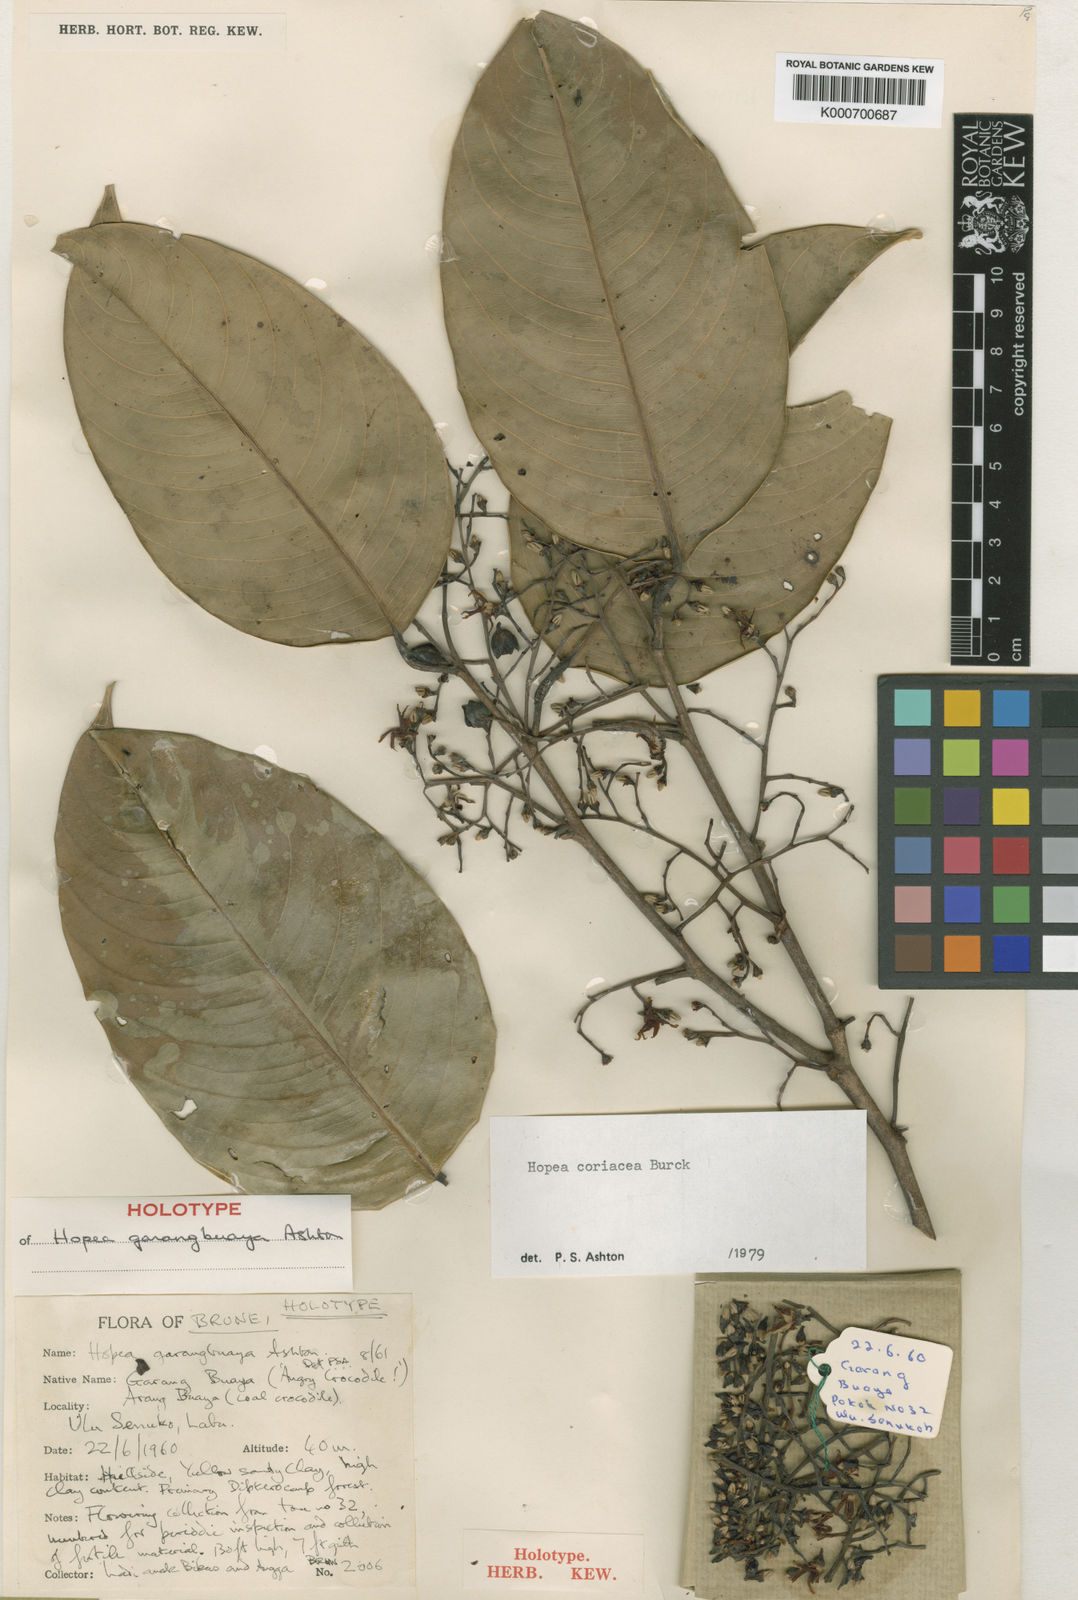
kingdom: Plantae
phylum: Tracheophyta
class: Magnoliopsida
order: Malvales
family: Dipterocarpaceae
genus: Hopea
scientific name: Hopea coriacea
